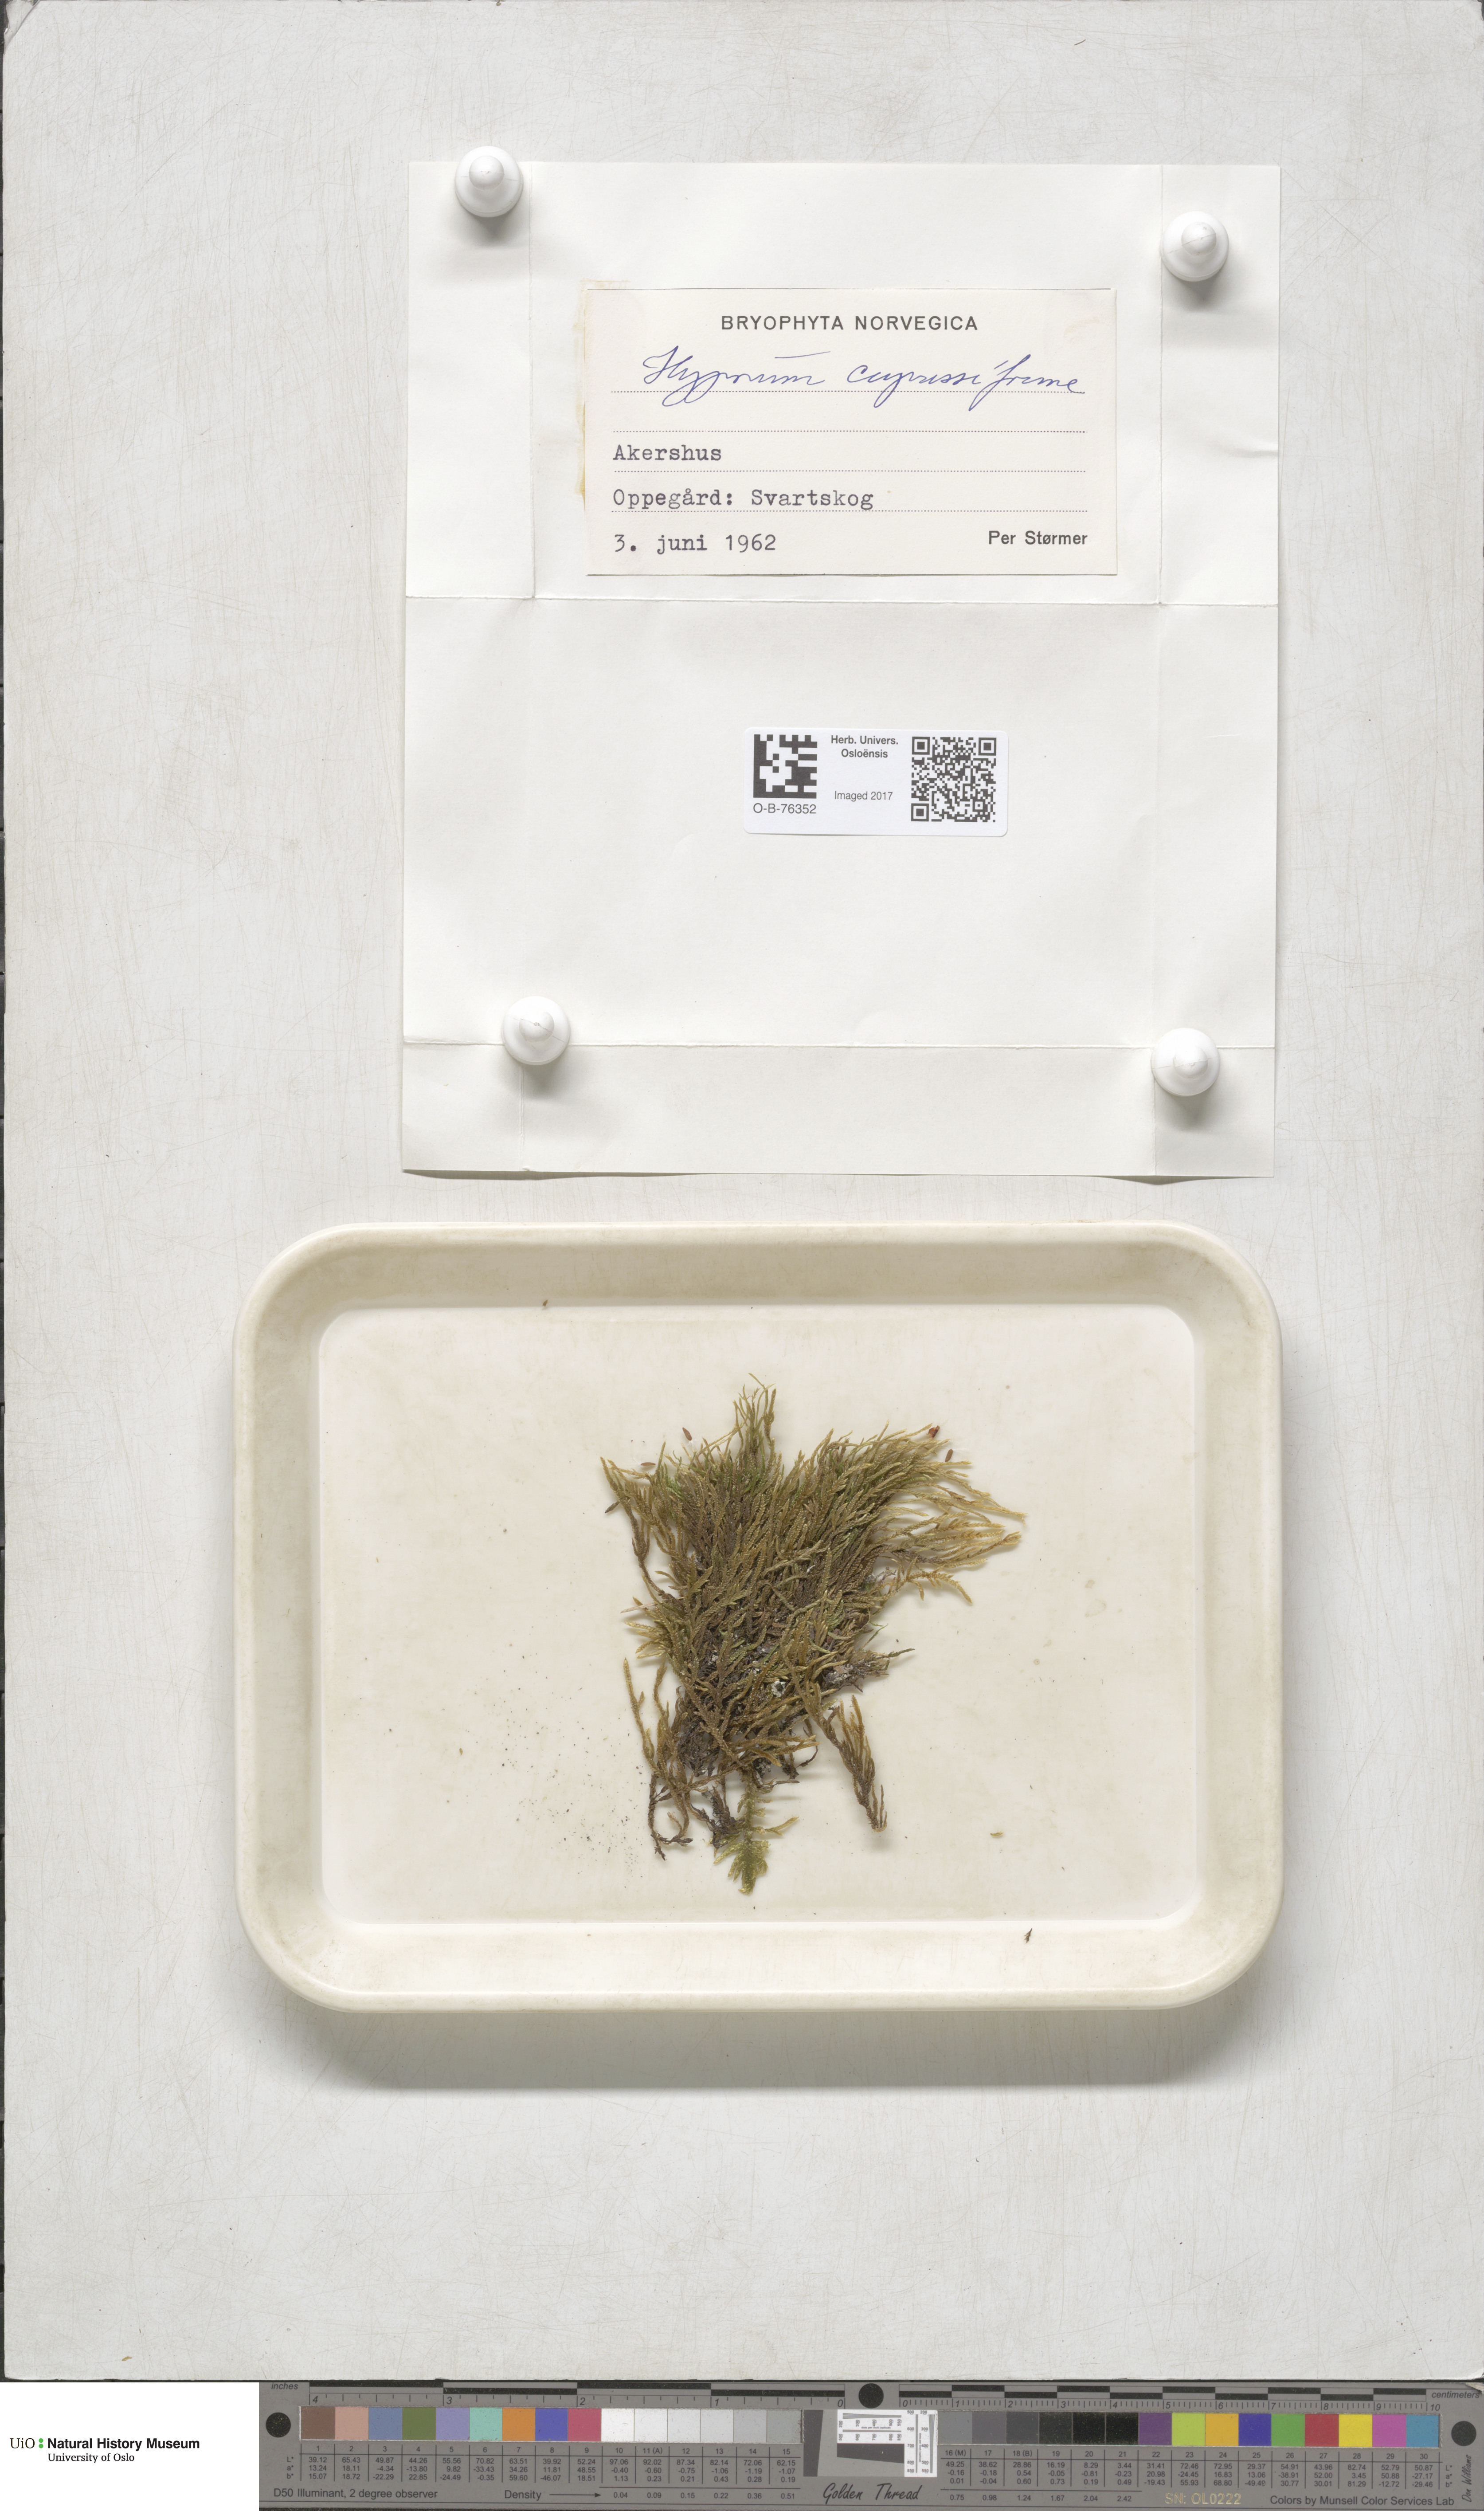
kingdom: Plantae
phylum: Bryophyta
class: Bryopsida
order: Hypnales
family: Hypnaceae
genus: Hypnum
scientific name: Hypnum cupressiforme
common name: Cypress-leaved plait-moss
